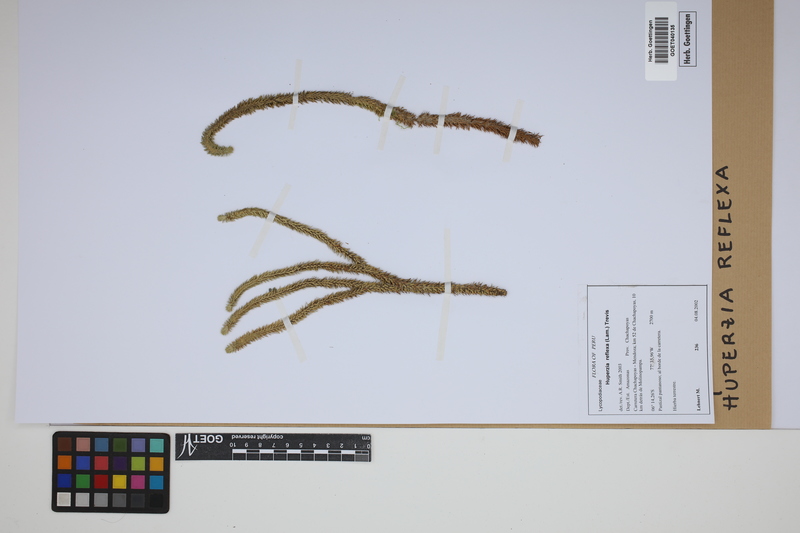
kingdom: Plantae
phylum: Tracheophyta
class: Lycopodiopsida
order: Lycopodiales
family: Lycopodiaceae
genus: Phlegmariurus
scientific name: Phlegmariurus reflexus
